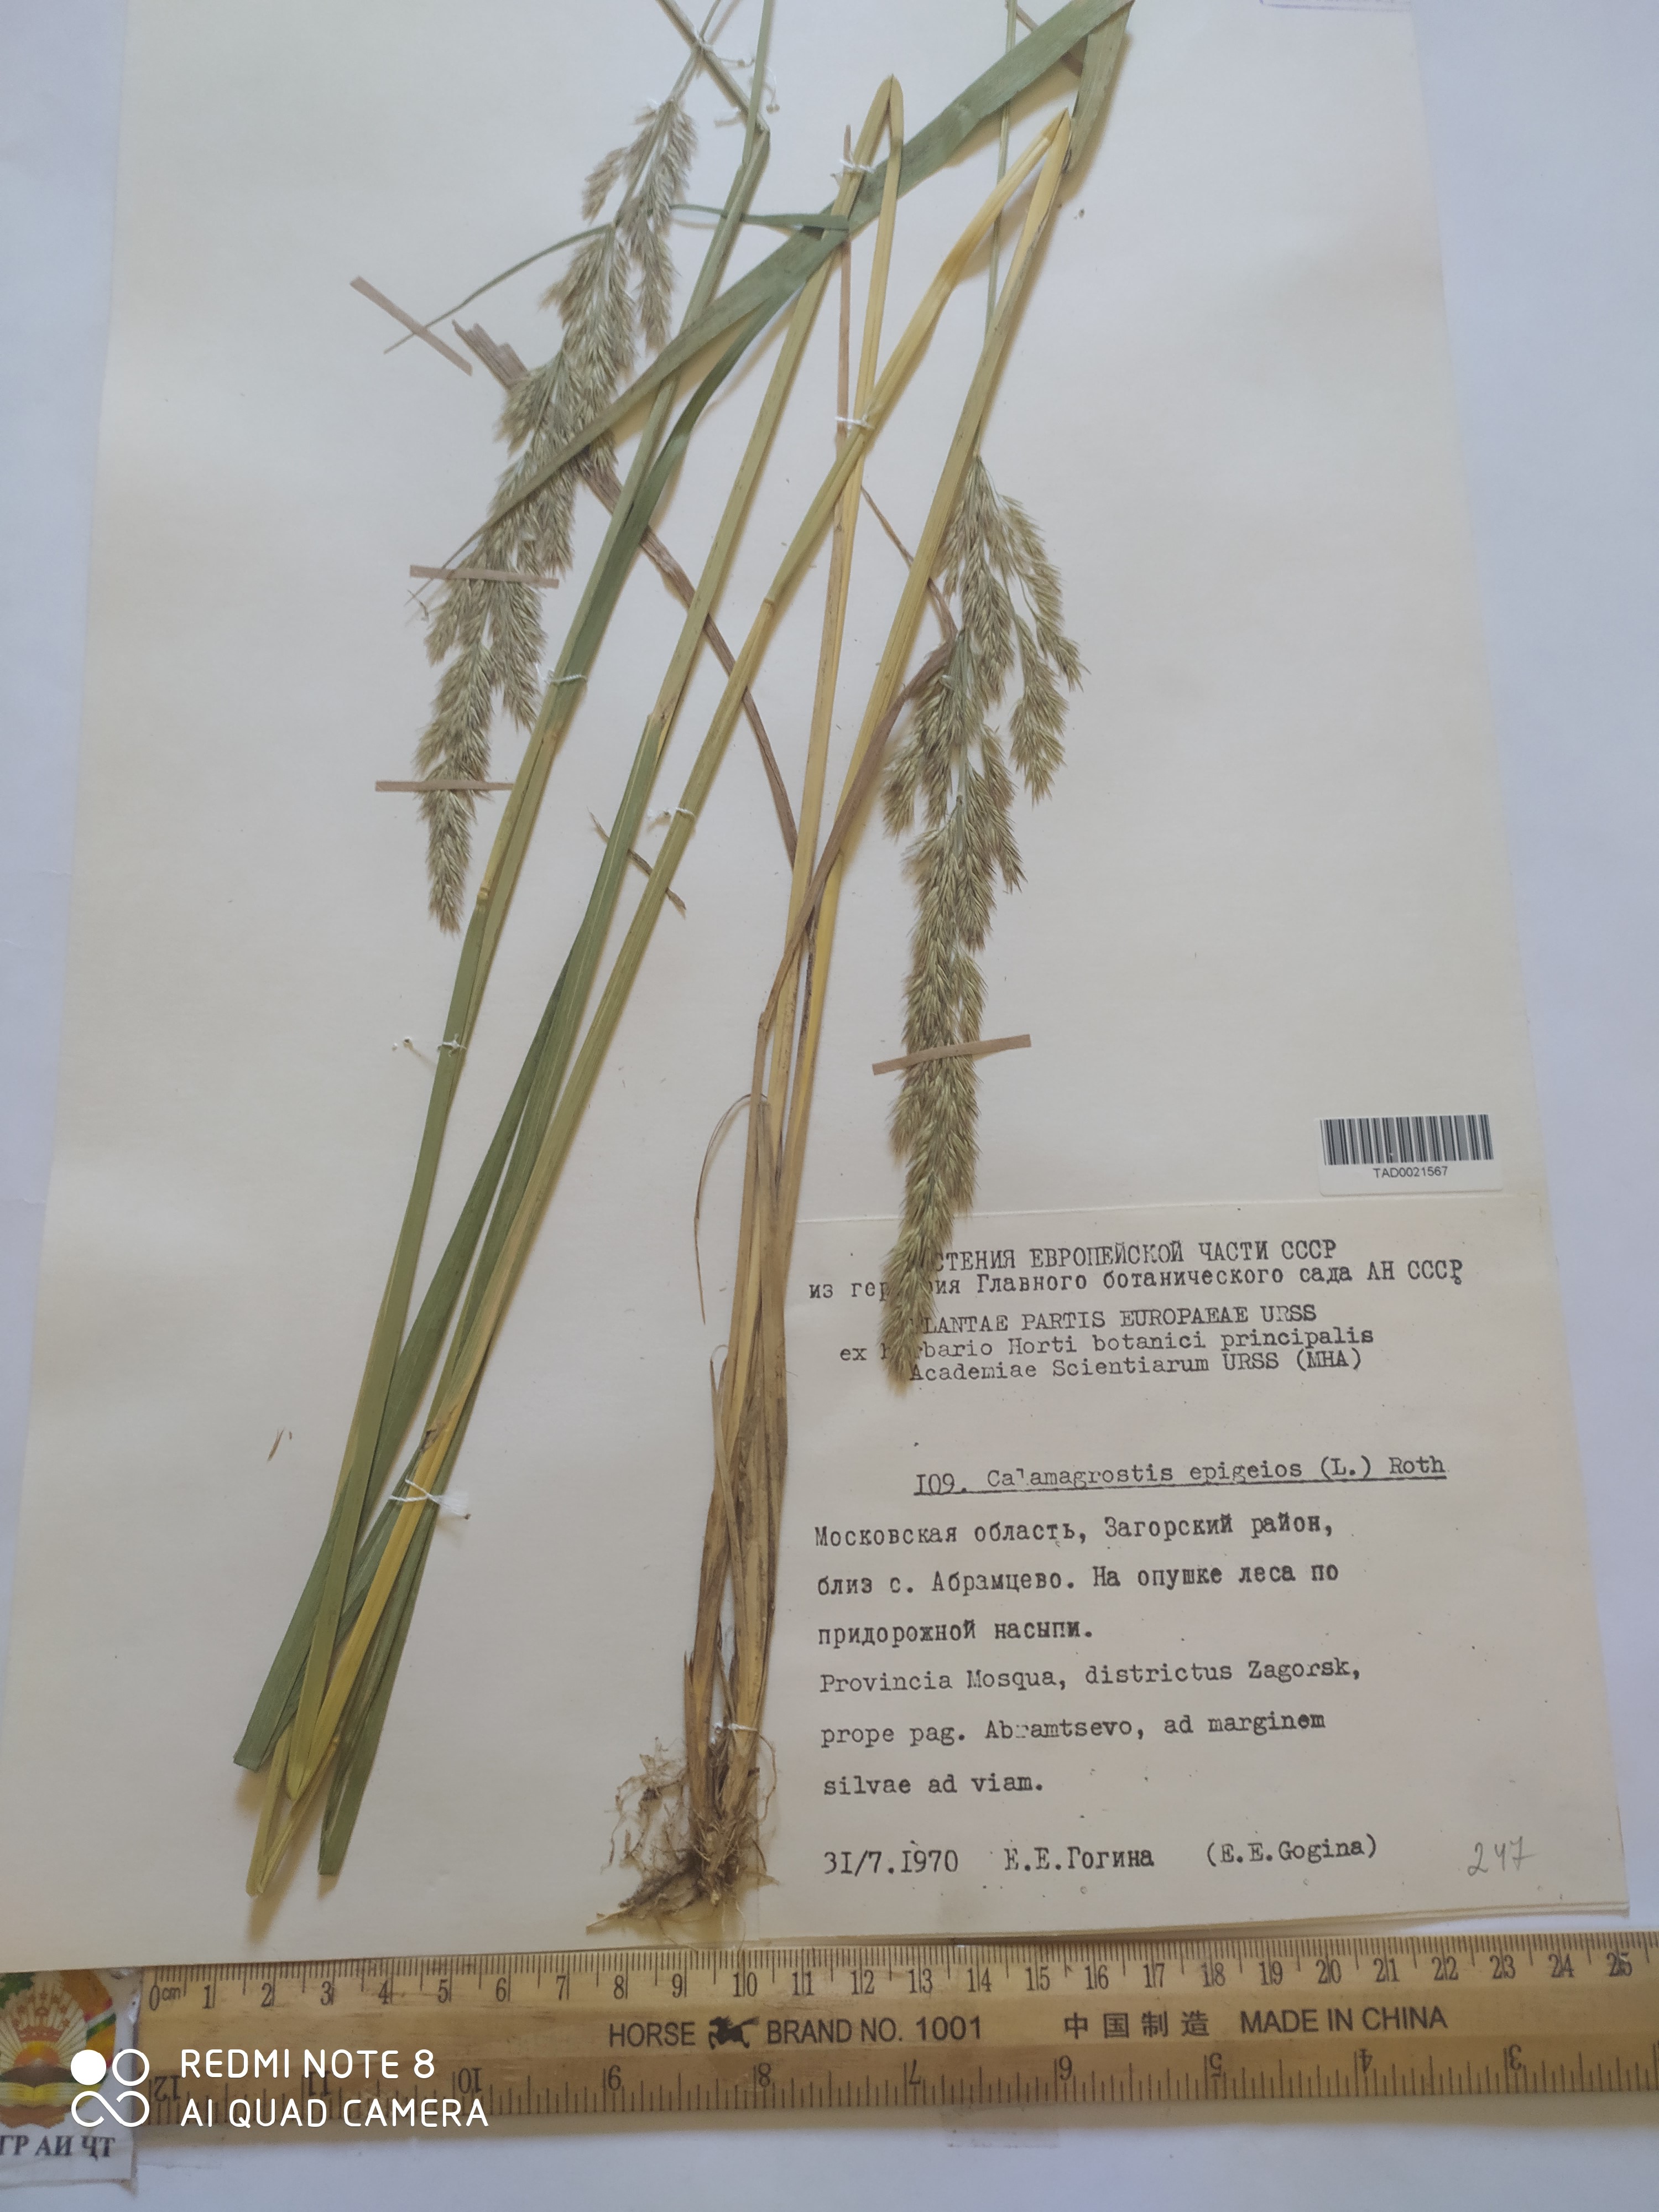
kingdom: Plantae
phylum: Tracheophyta
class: Liliopsida
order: Poales
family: Poaceae
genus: Calamagrostis
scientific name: Calamagrostis epigejos
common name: Wood small-reed
